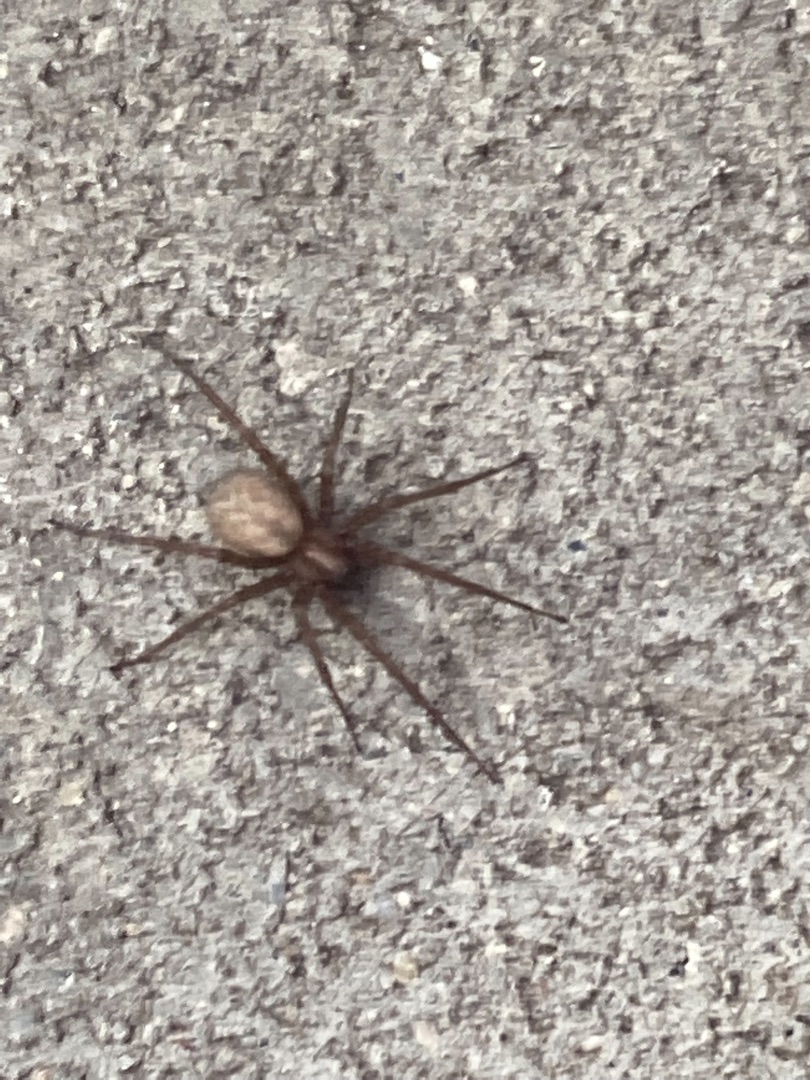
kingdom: Animalia
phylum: Arthropoda
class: Arachnida
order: Araneae
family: Agelenidae
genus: Tegenaria
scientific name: Tegenaria domestica
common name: Lille husedderkop
